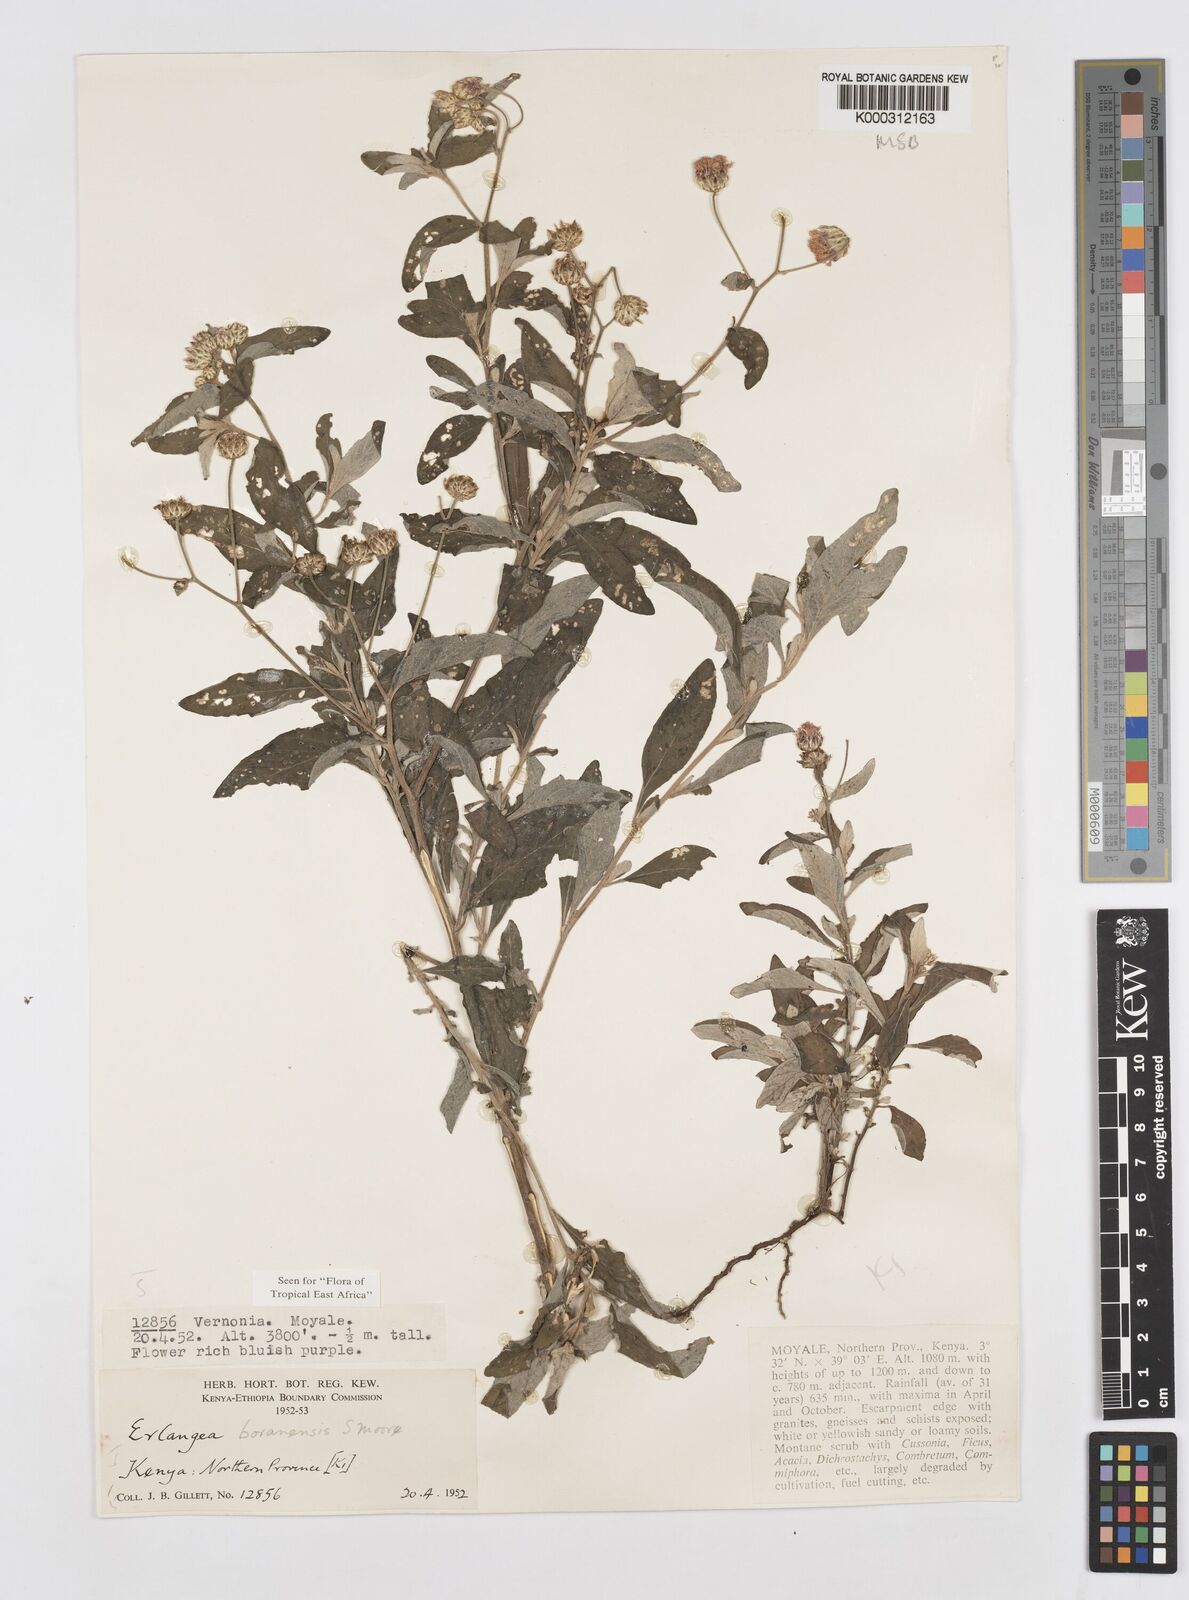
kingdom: Plantae
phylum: Tracheophyta
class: Magnoliopsida
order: Asterales
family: Asteraceae
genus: Gutenbergia
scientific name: Gutenbergia boranensis
